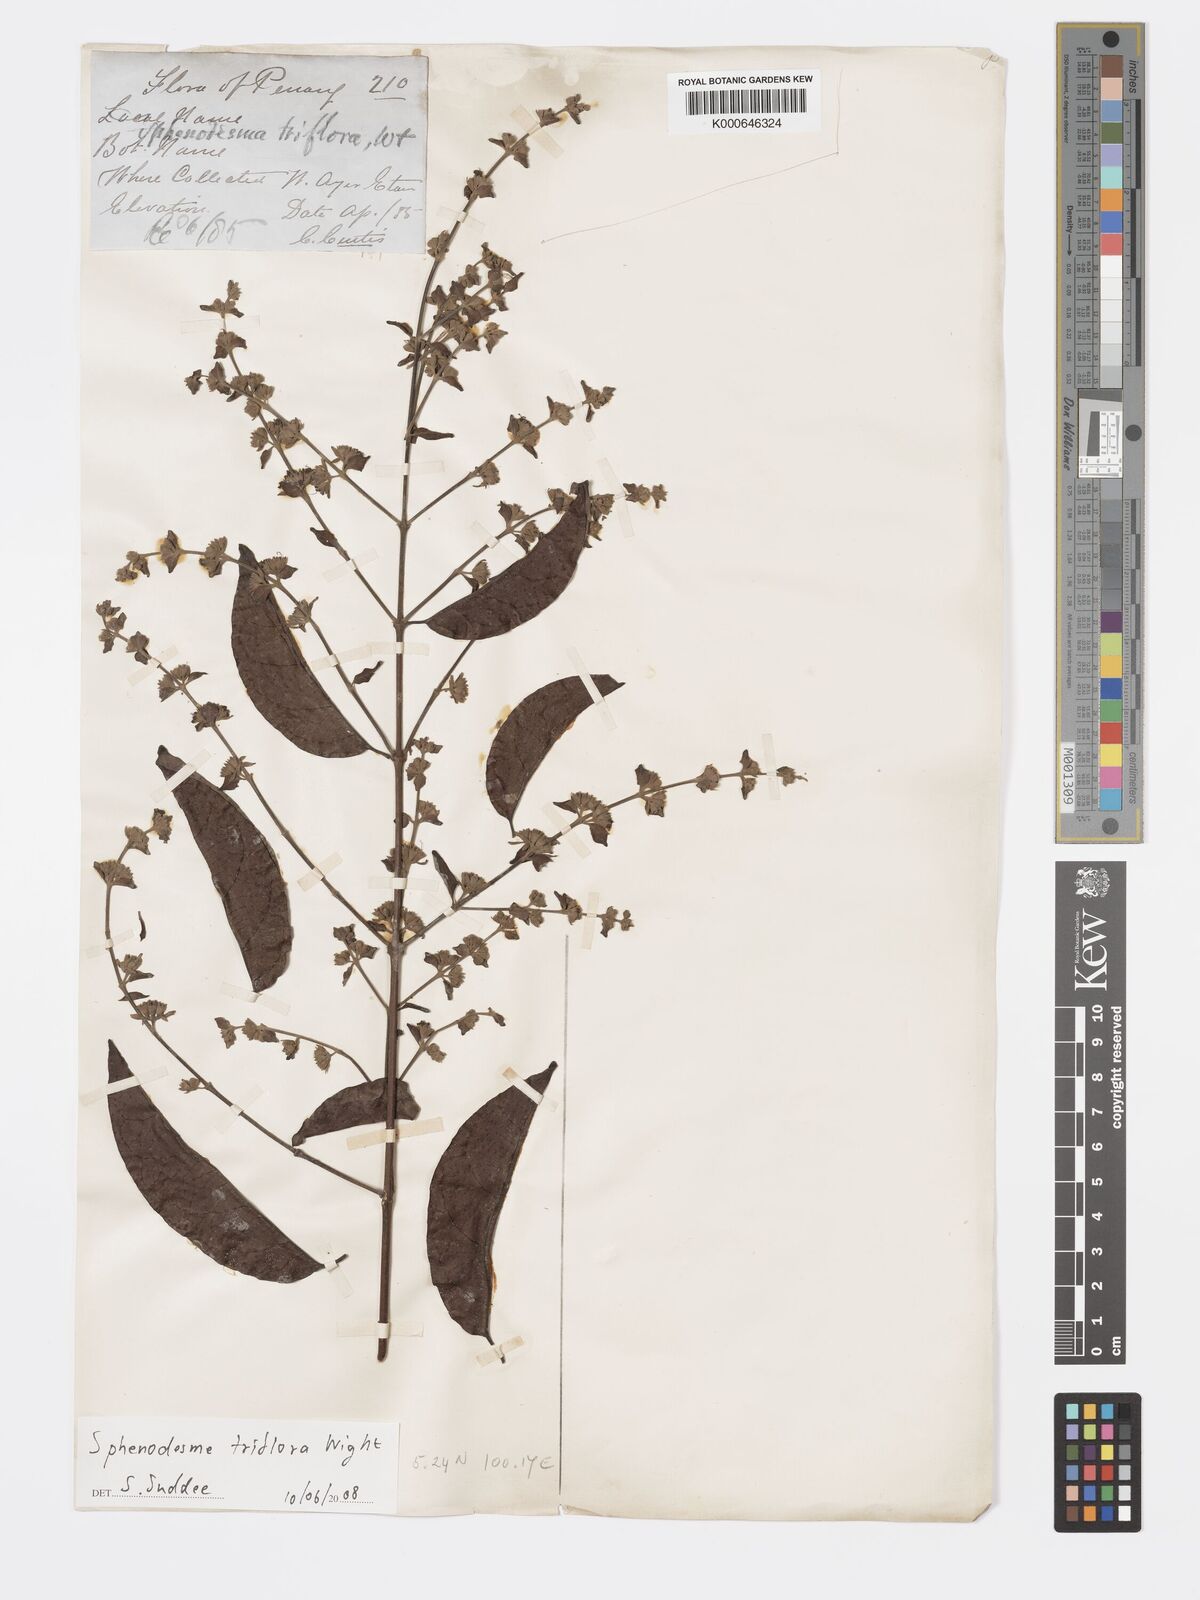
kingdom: Plantae
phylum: Tracheophyta
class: Magnoliopsida
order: Lamiales
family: Lamiaceae
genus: Sphenodesme
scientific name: Sphenodesme
